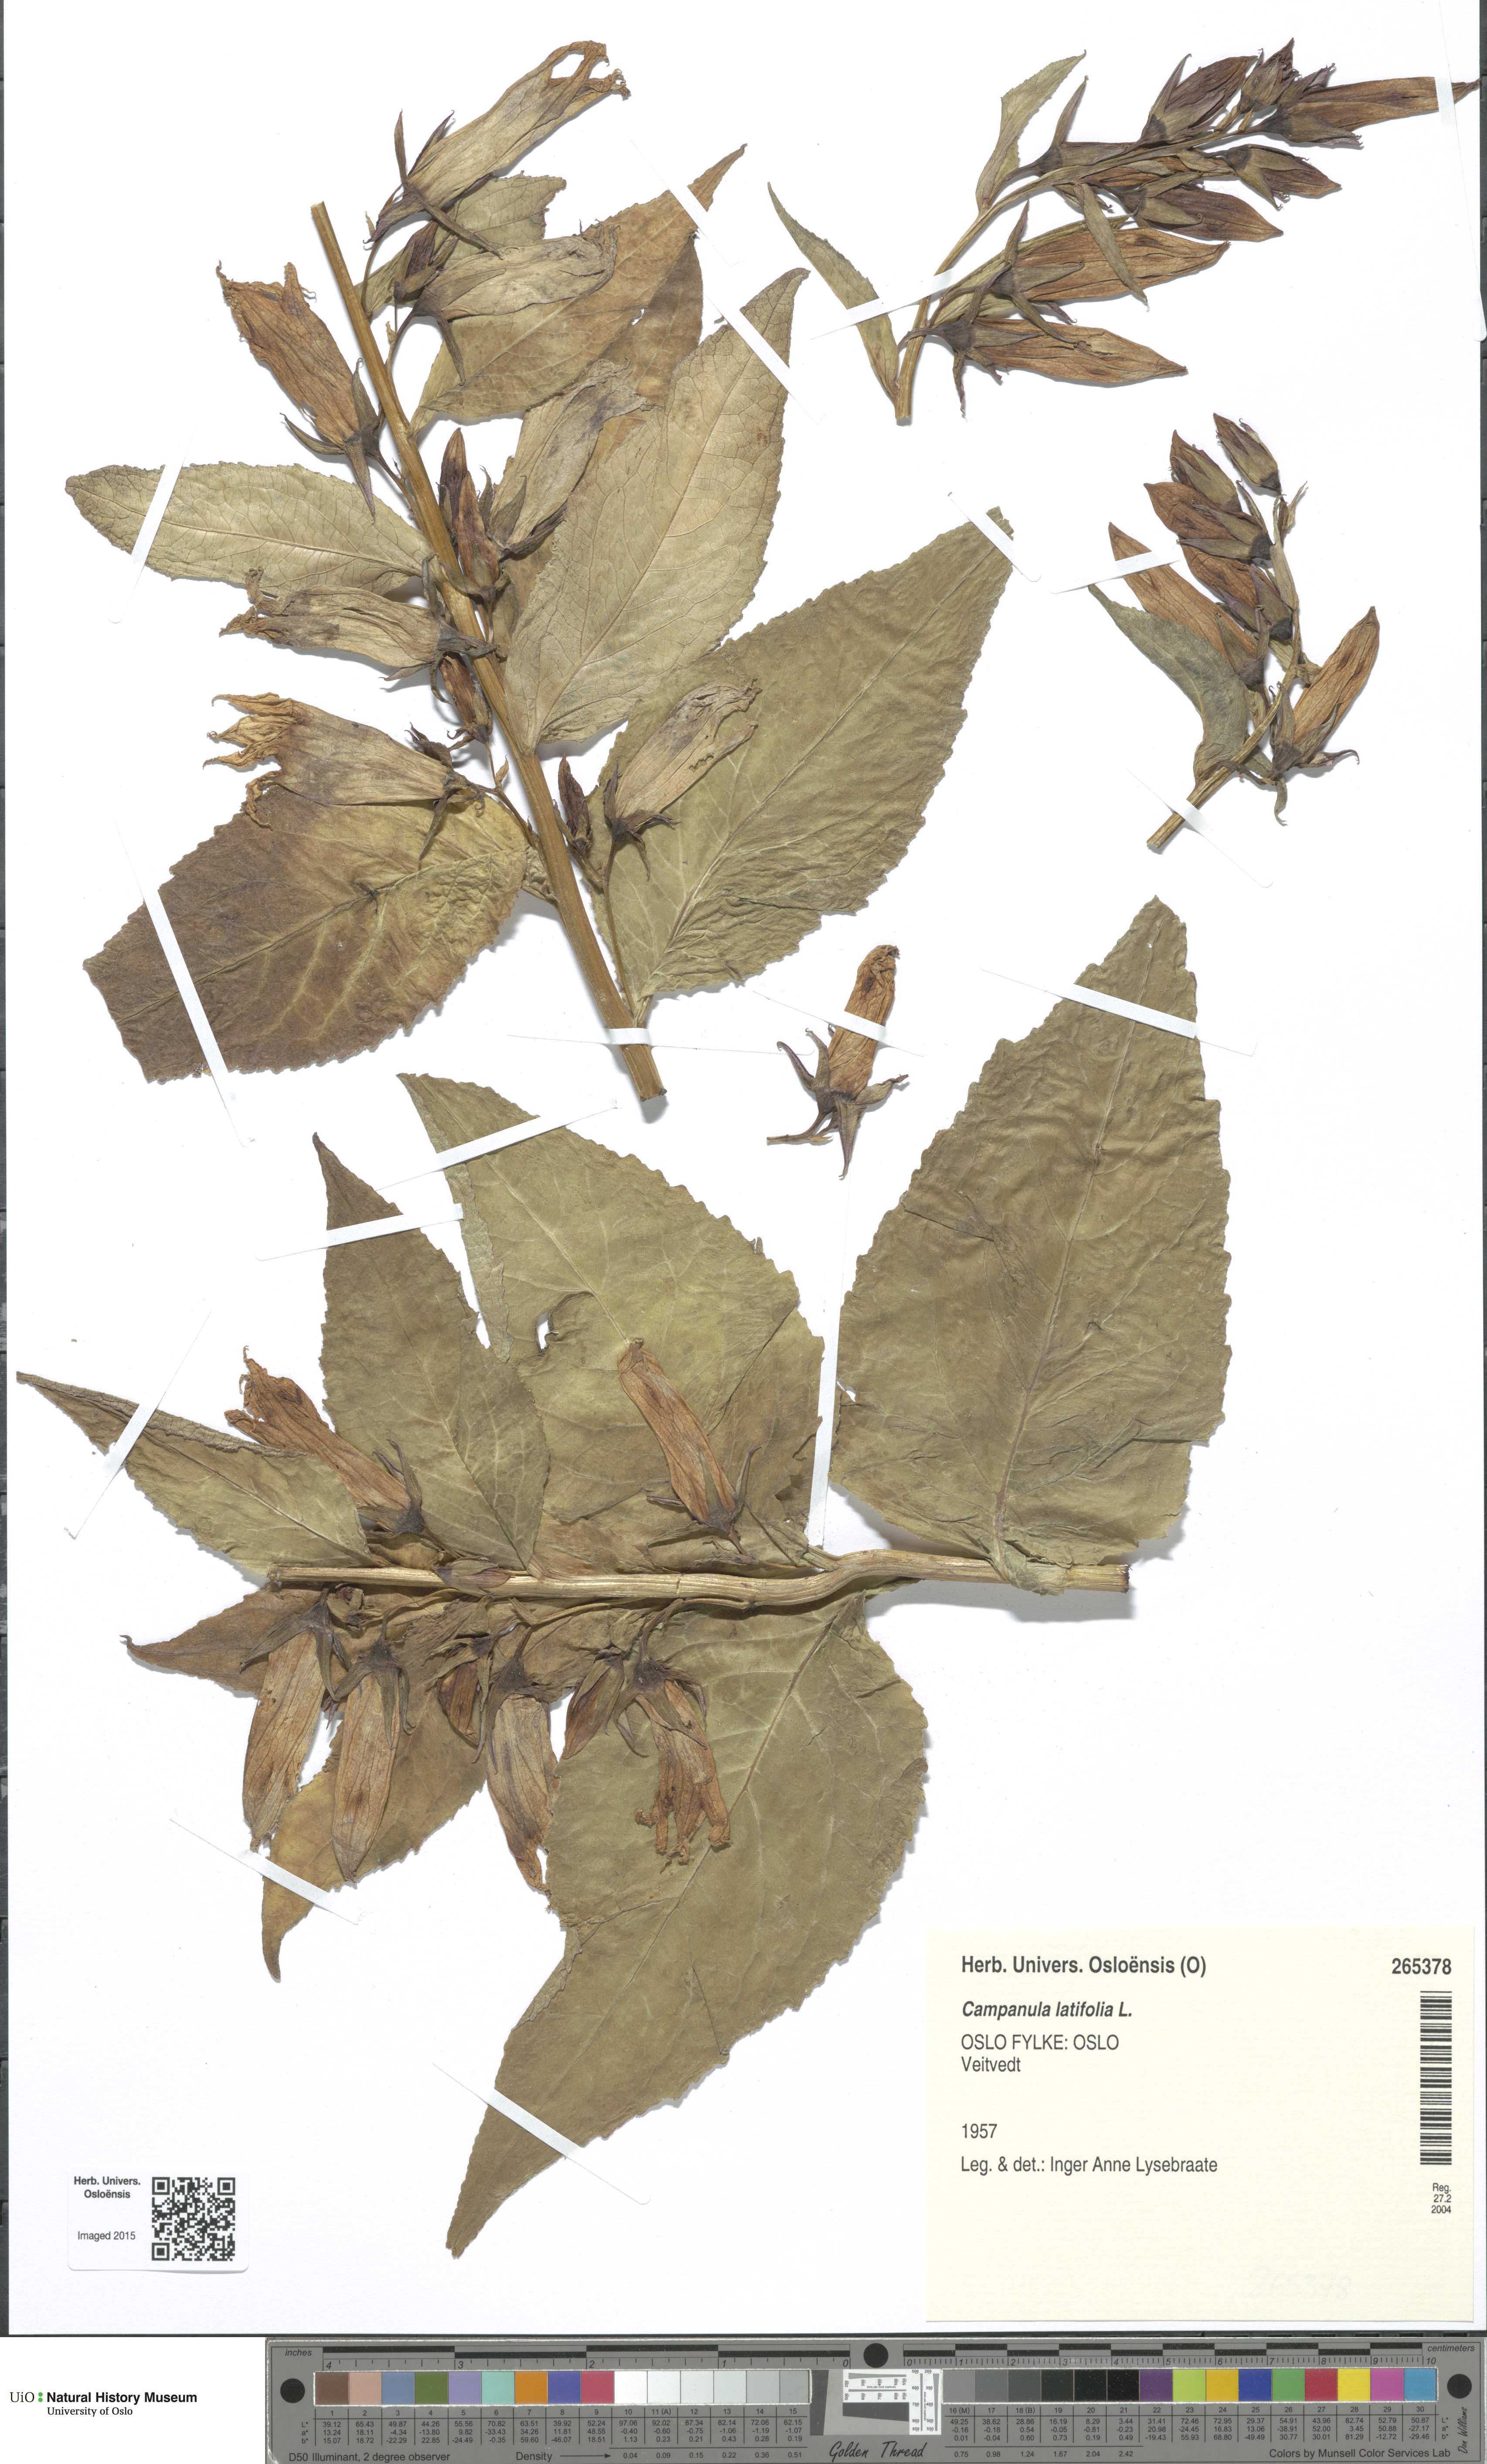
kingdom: Plantae
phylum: Tracheophyta
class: Magnoliopsida
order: Asterales
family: Campanulaceae
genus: Campanula
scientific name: Campanula latifolia
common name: Giant bellflower
